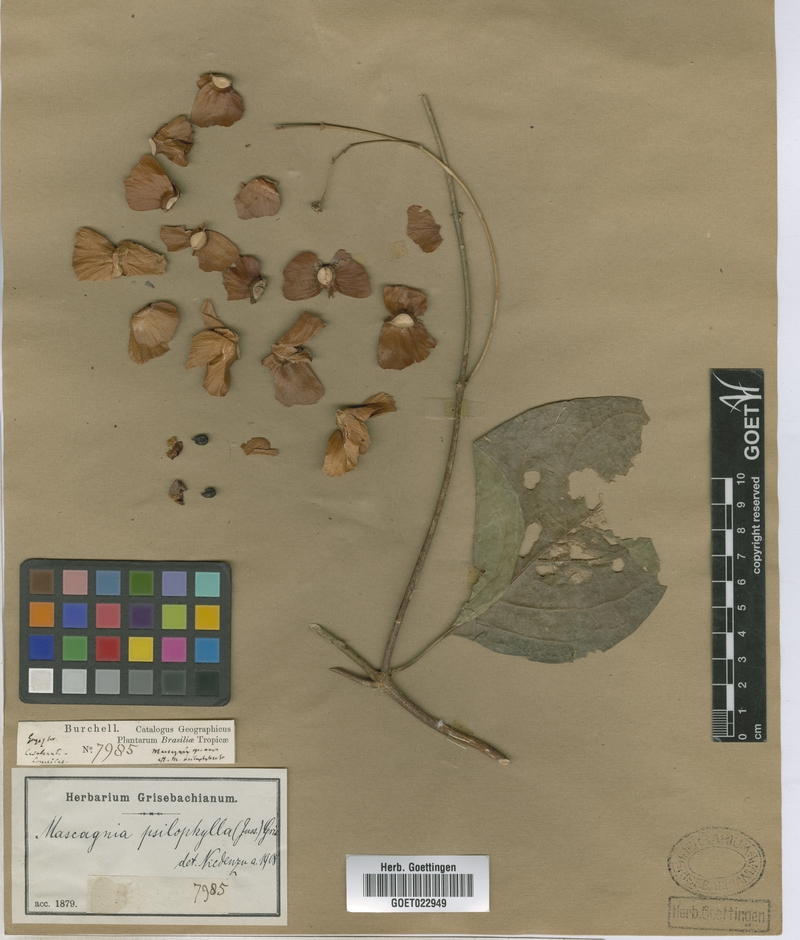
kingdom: Plantae
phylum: Tracheophyta
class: Magnoliopsida
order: Malpighiales
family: Malpighiaceae
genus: Callaeum
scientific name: Callaeum psilophyllum
